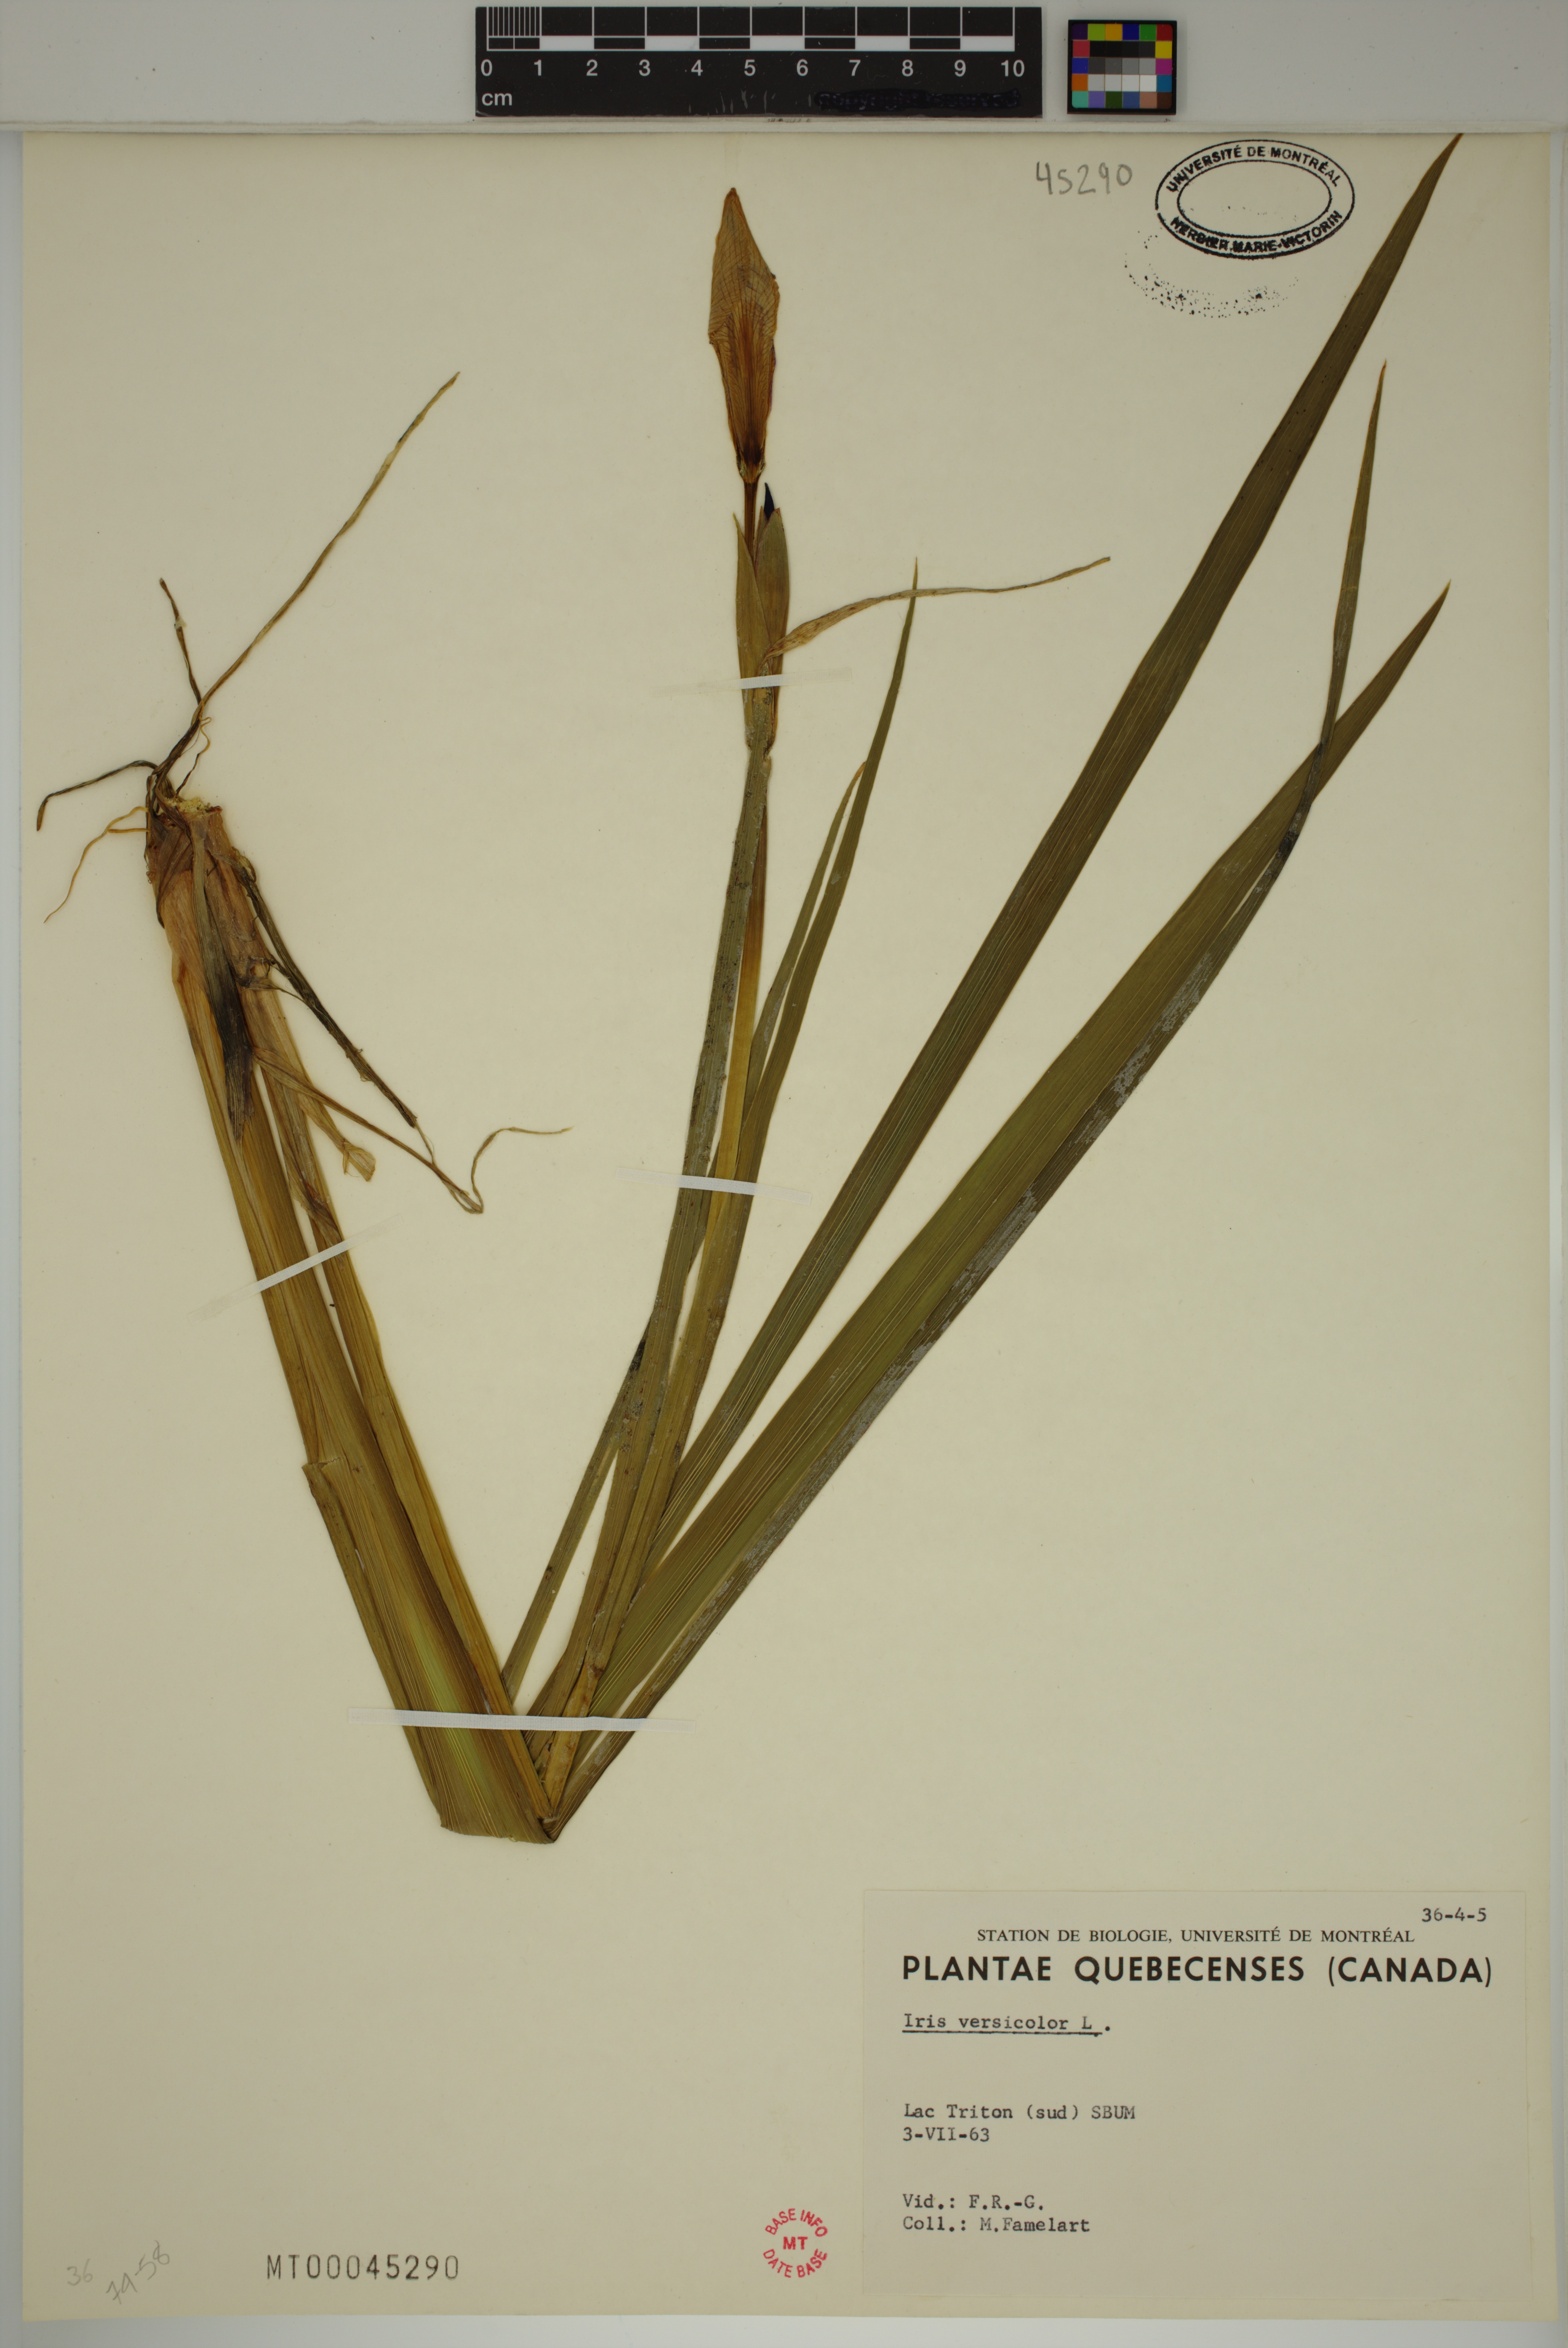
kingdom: Plantae
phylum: Tracheophyta
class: Liliopsida
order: Asparagales
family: Iridaceae
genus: Iris
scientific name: Iris versicolor
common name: Purple iris
